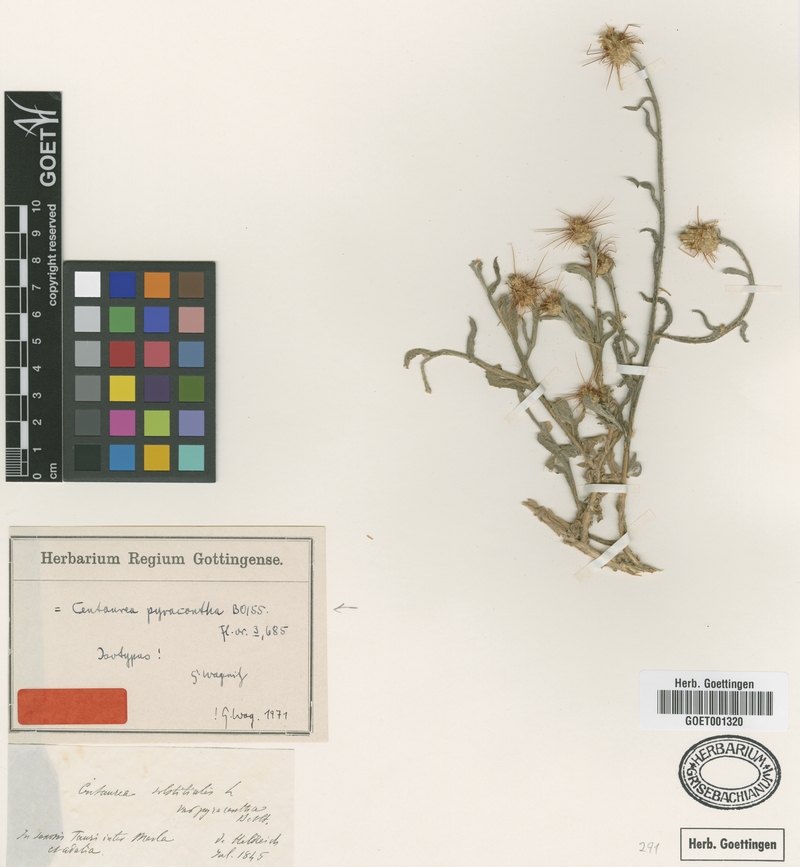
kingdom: Plantae
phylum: Tracheophyta
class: Magnoliopsida
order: Asterales
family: Asteraceae
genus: Centaurea
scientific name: Centaurea solstitialis
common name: Yellow star-thistle
